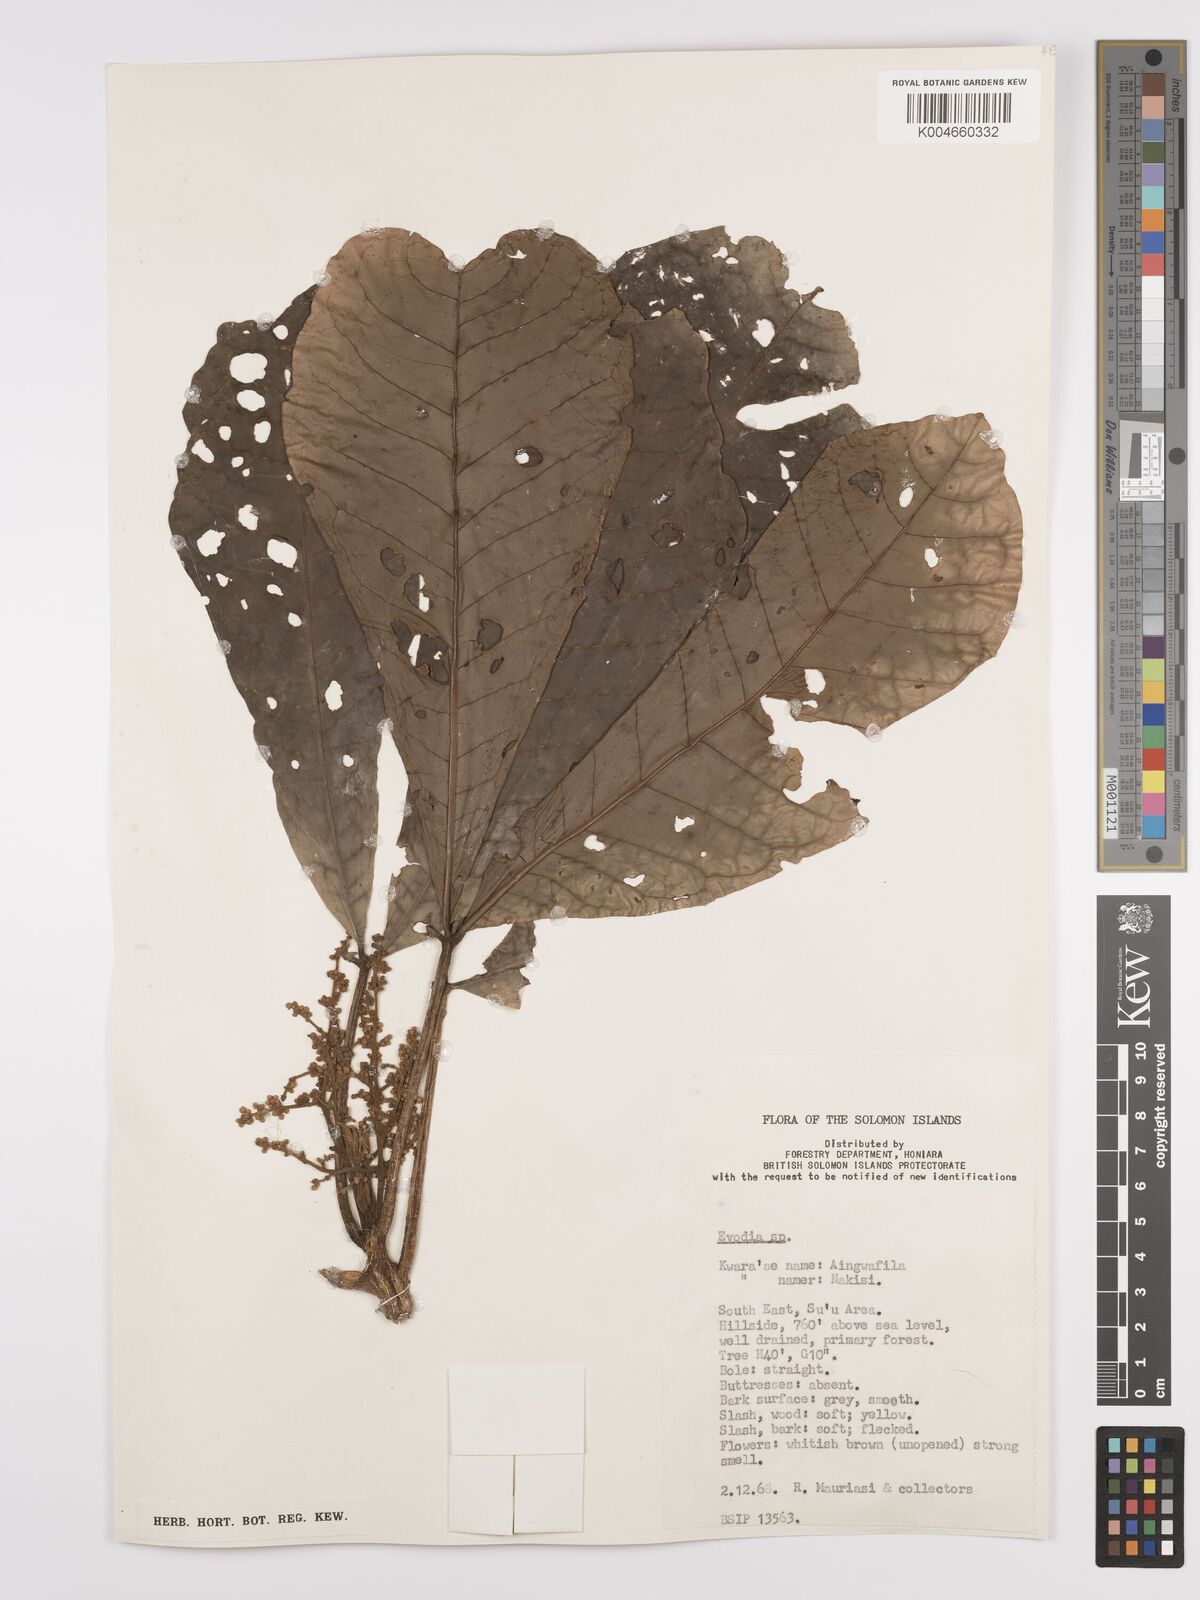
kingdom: Plantae
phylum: Tracheophyta
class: Magnoliopsida
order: Sapindales
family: Rutaceae
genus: Euodia
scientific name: Euodia
